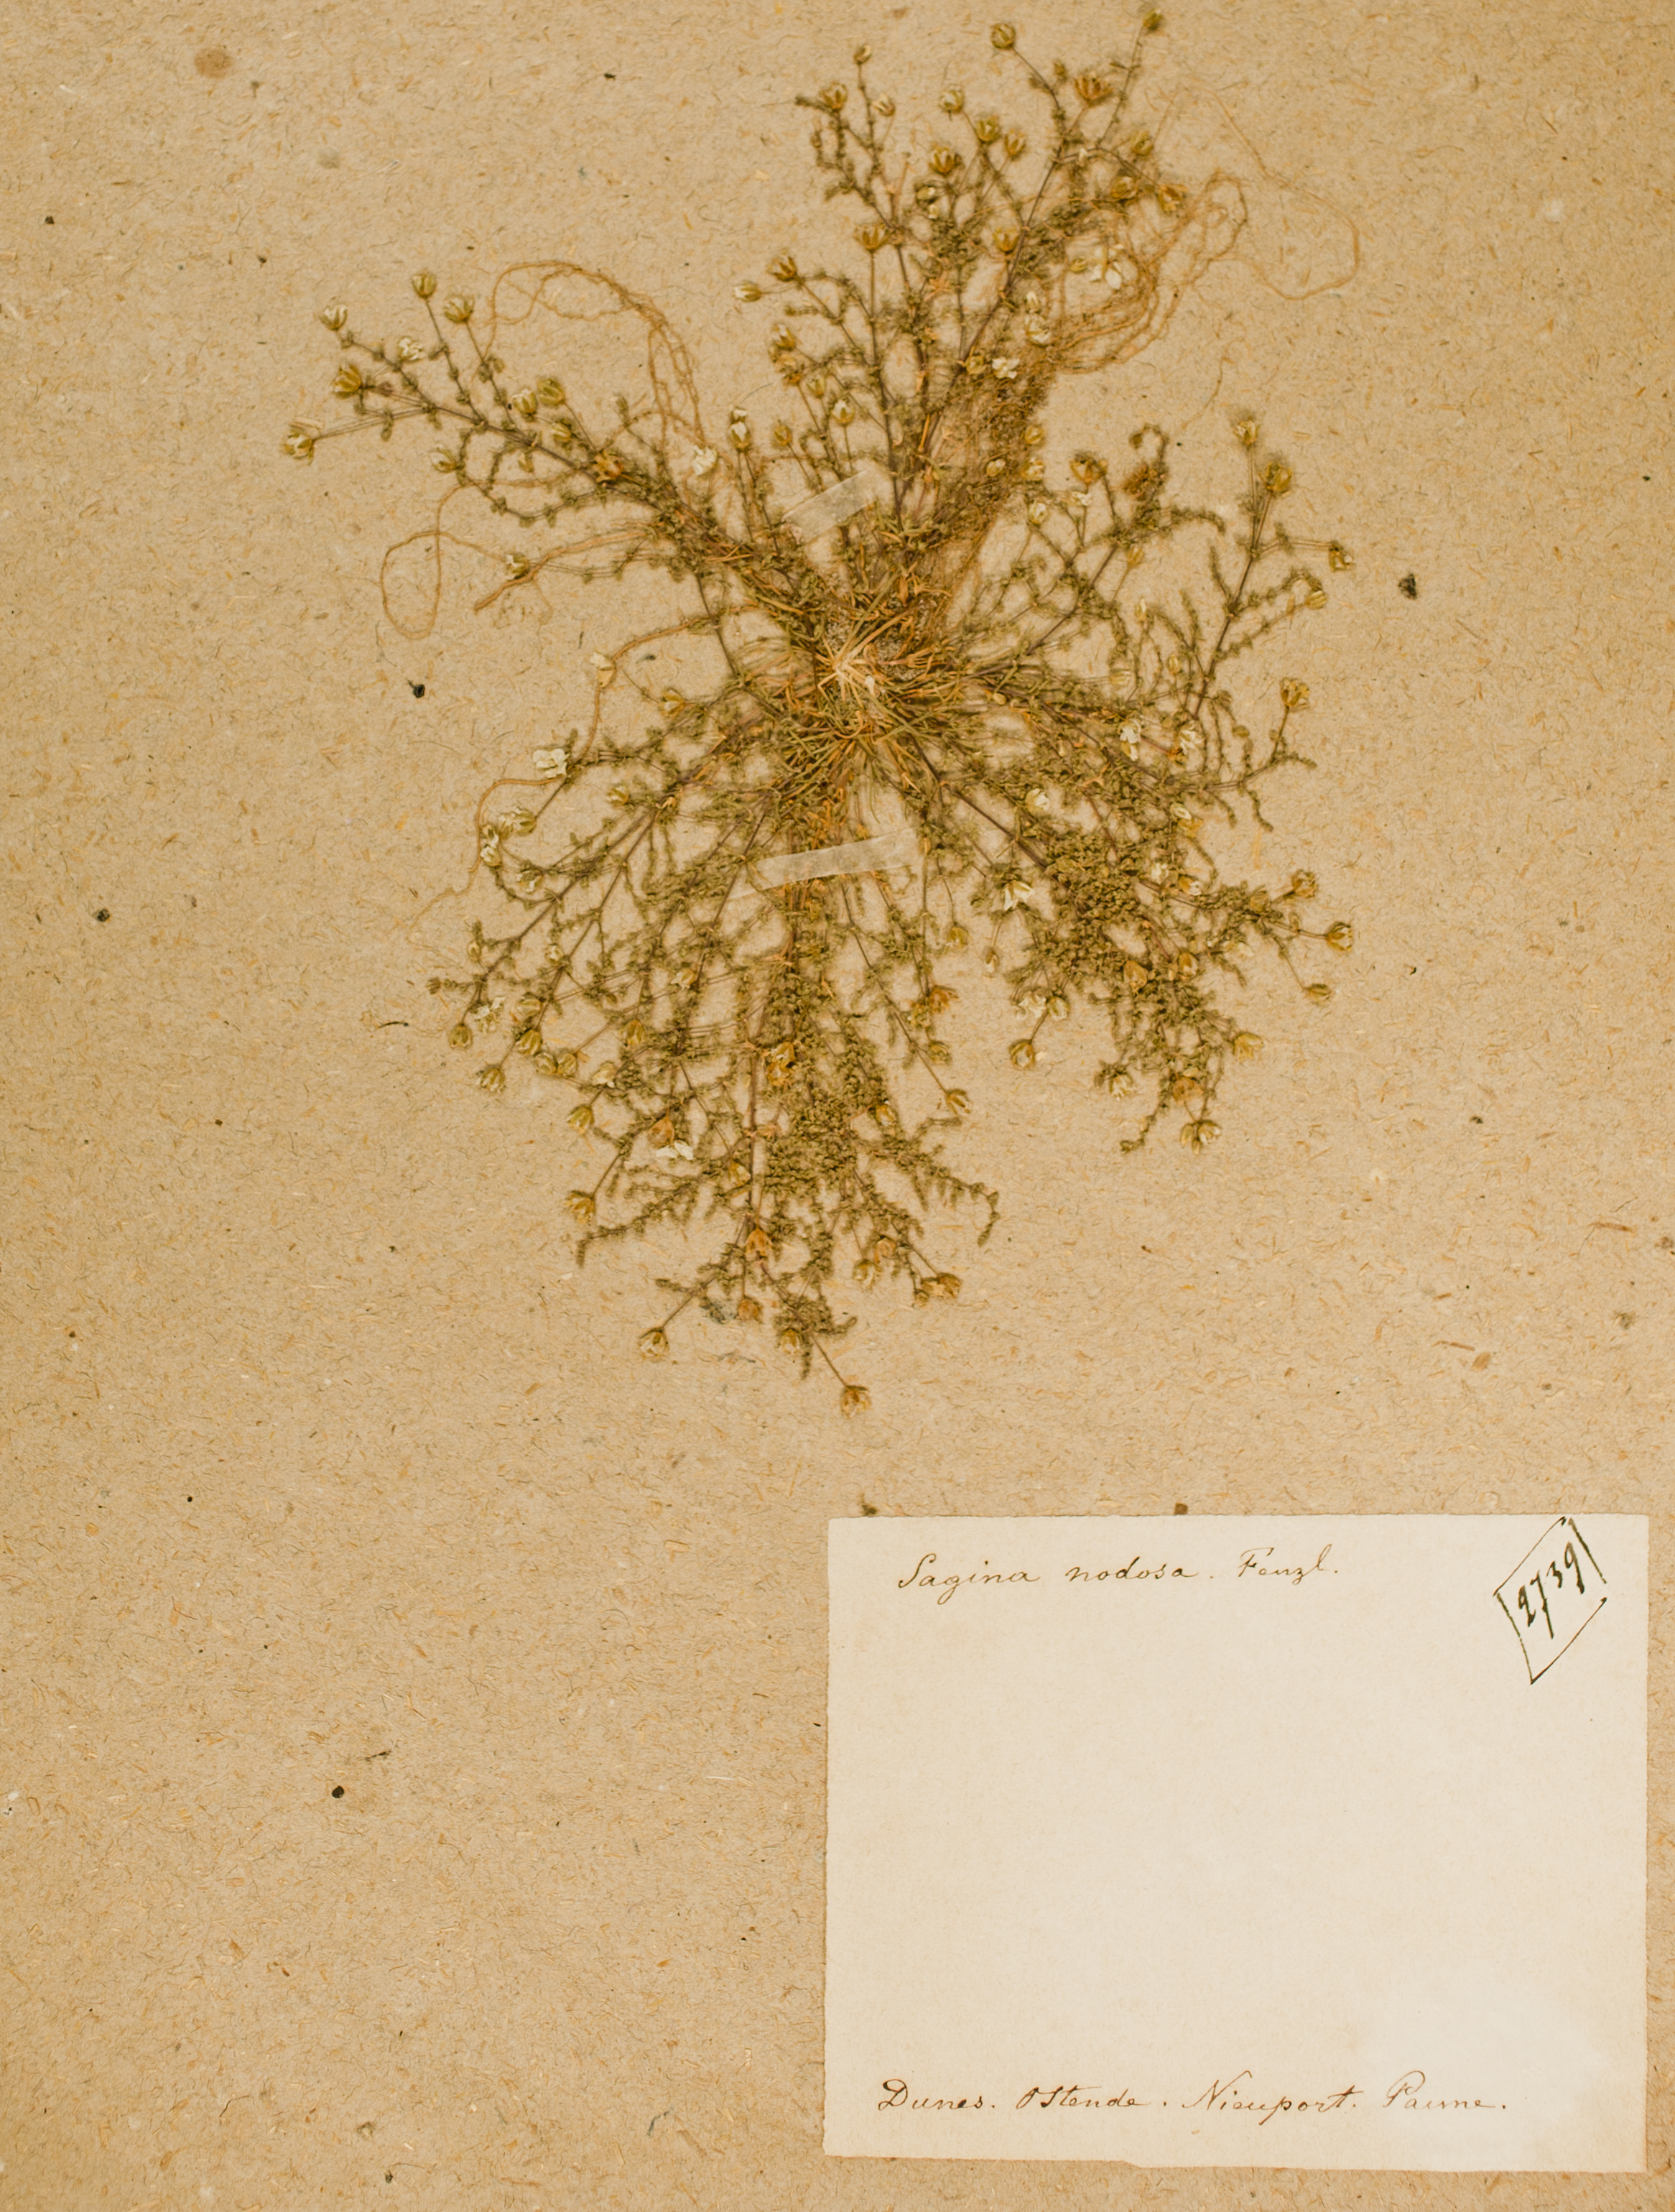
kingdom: Plantae
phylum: Tracheophyta
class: Magnoliopsida
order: Caryophyllales
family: Caryophyllaceae
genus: Sagina
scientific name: Sagina nodosa
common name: Knotted pearlwort
